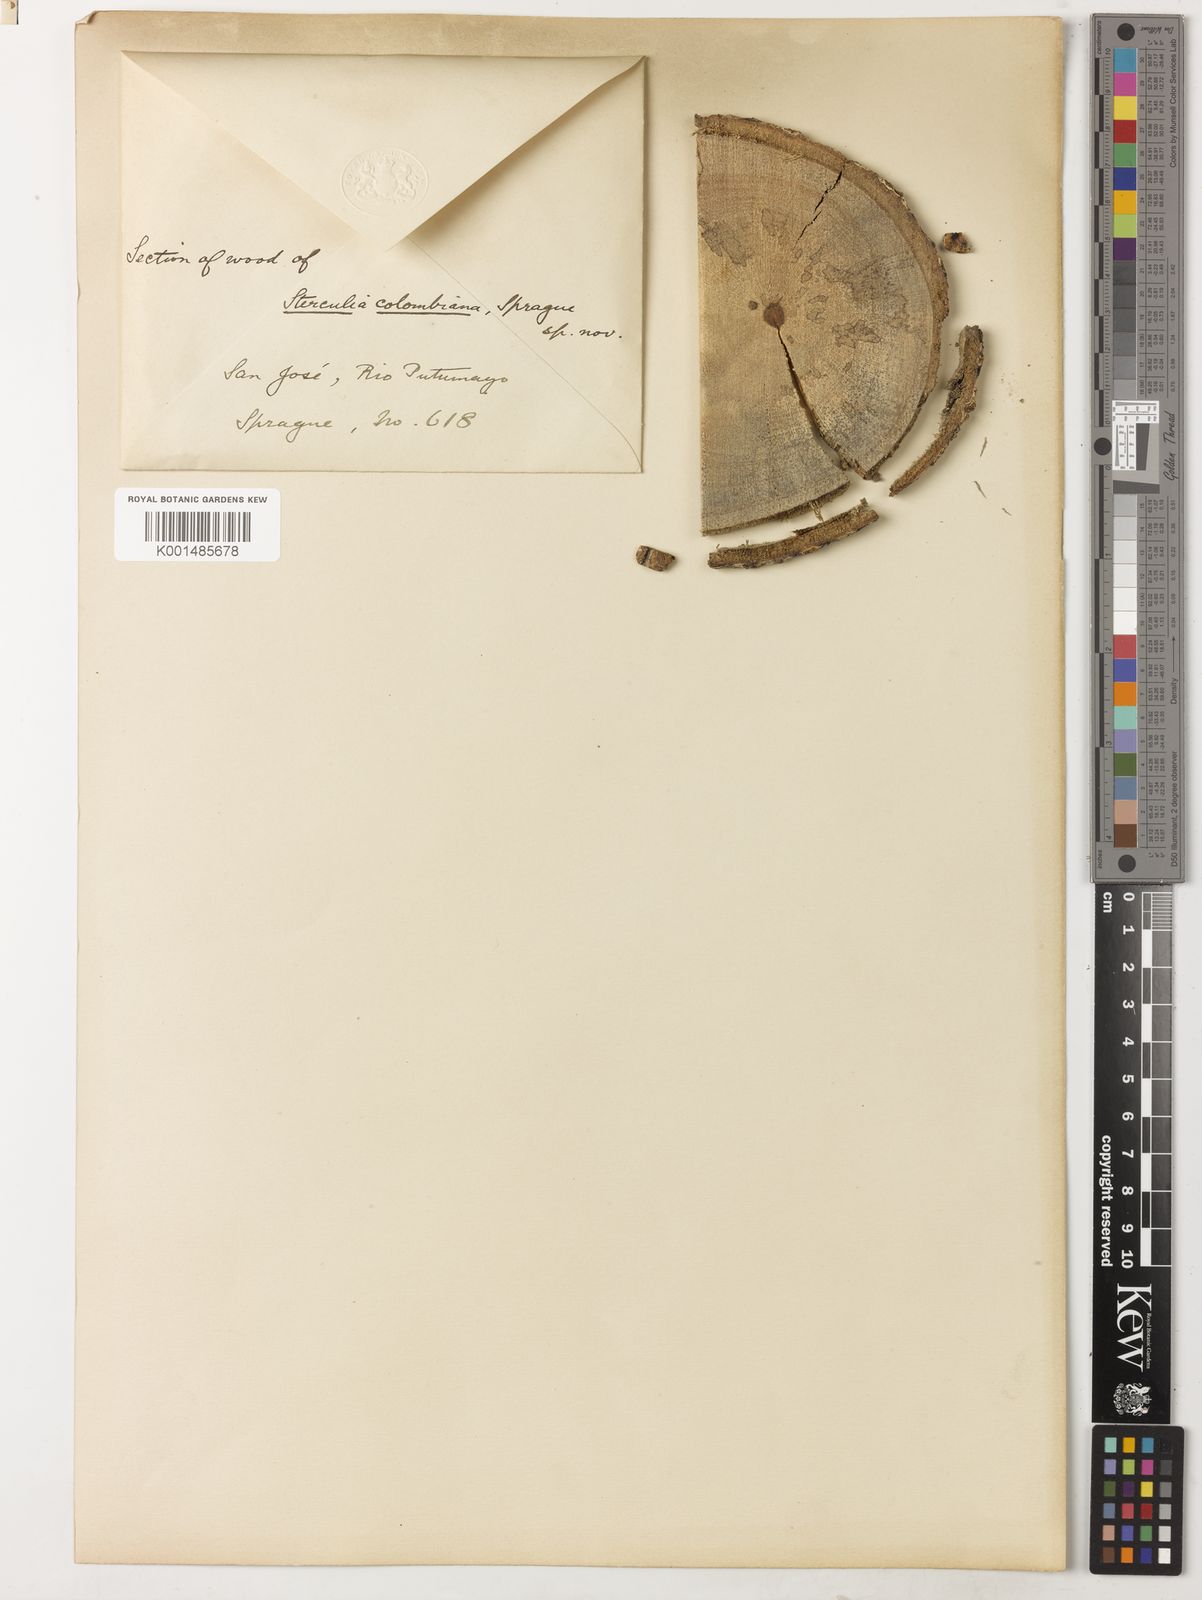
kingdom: Plantae
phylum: Tracheophyta
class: Magnoliopsida
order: Malvales
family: Malvaceae
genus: Sterculia
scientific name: Sterculia colombiana
